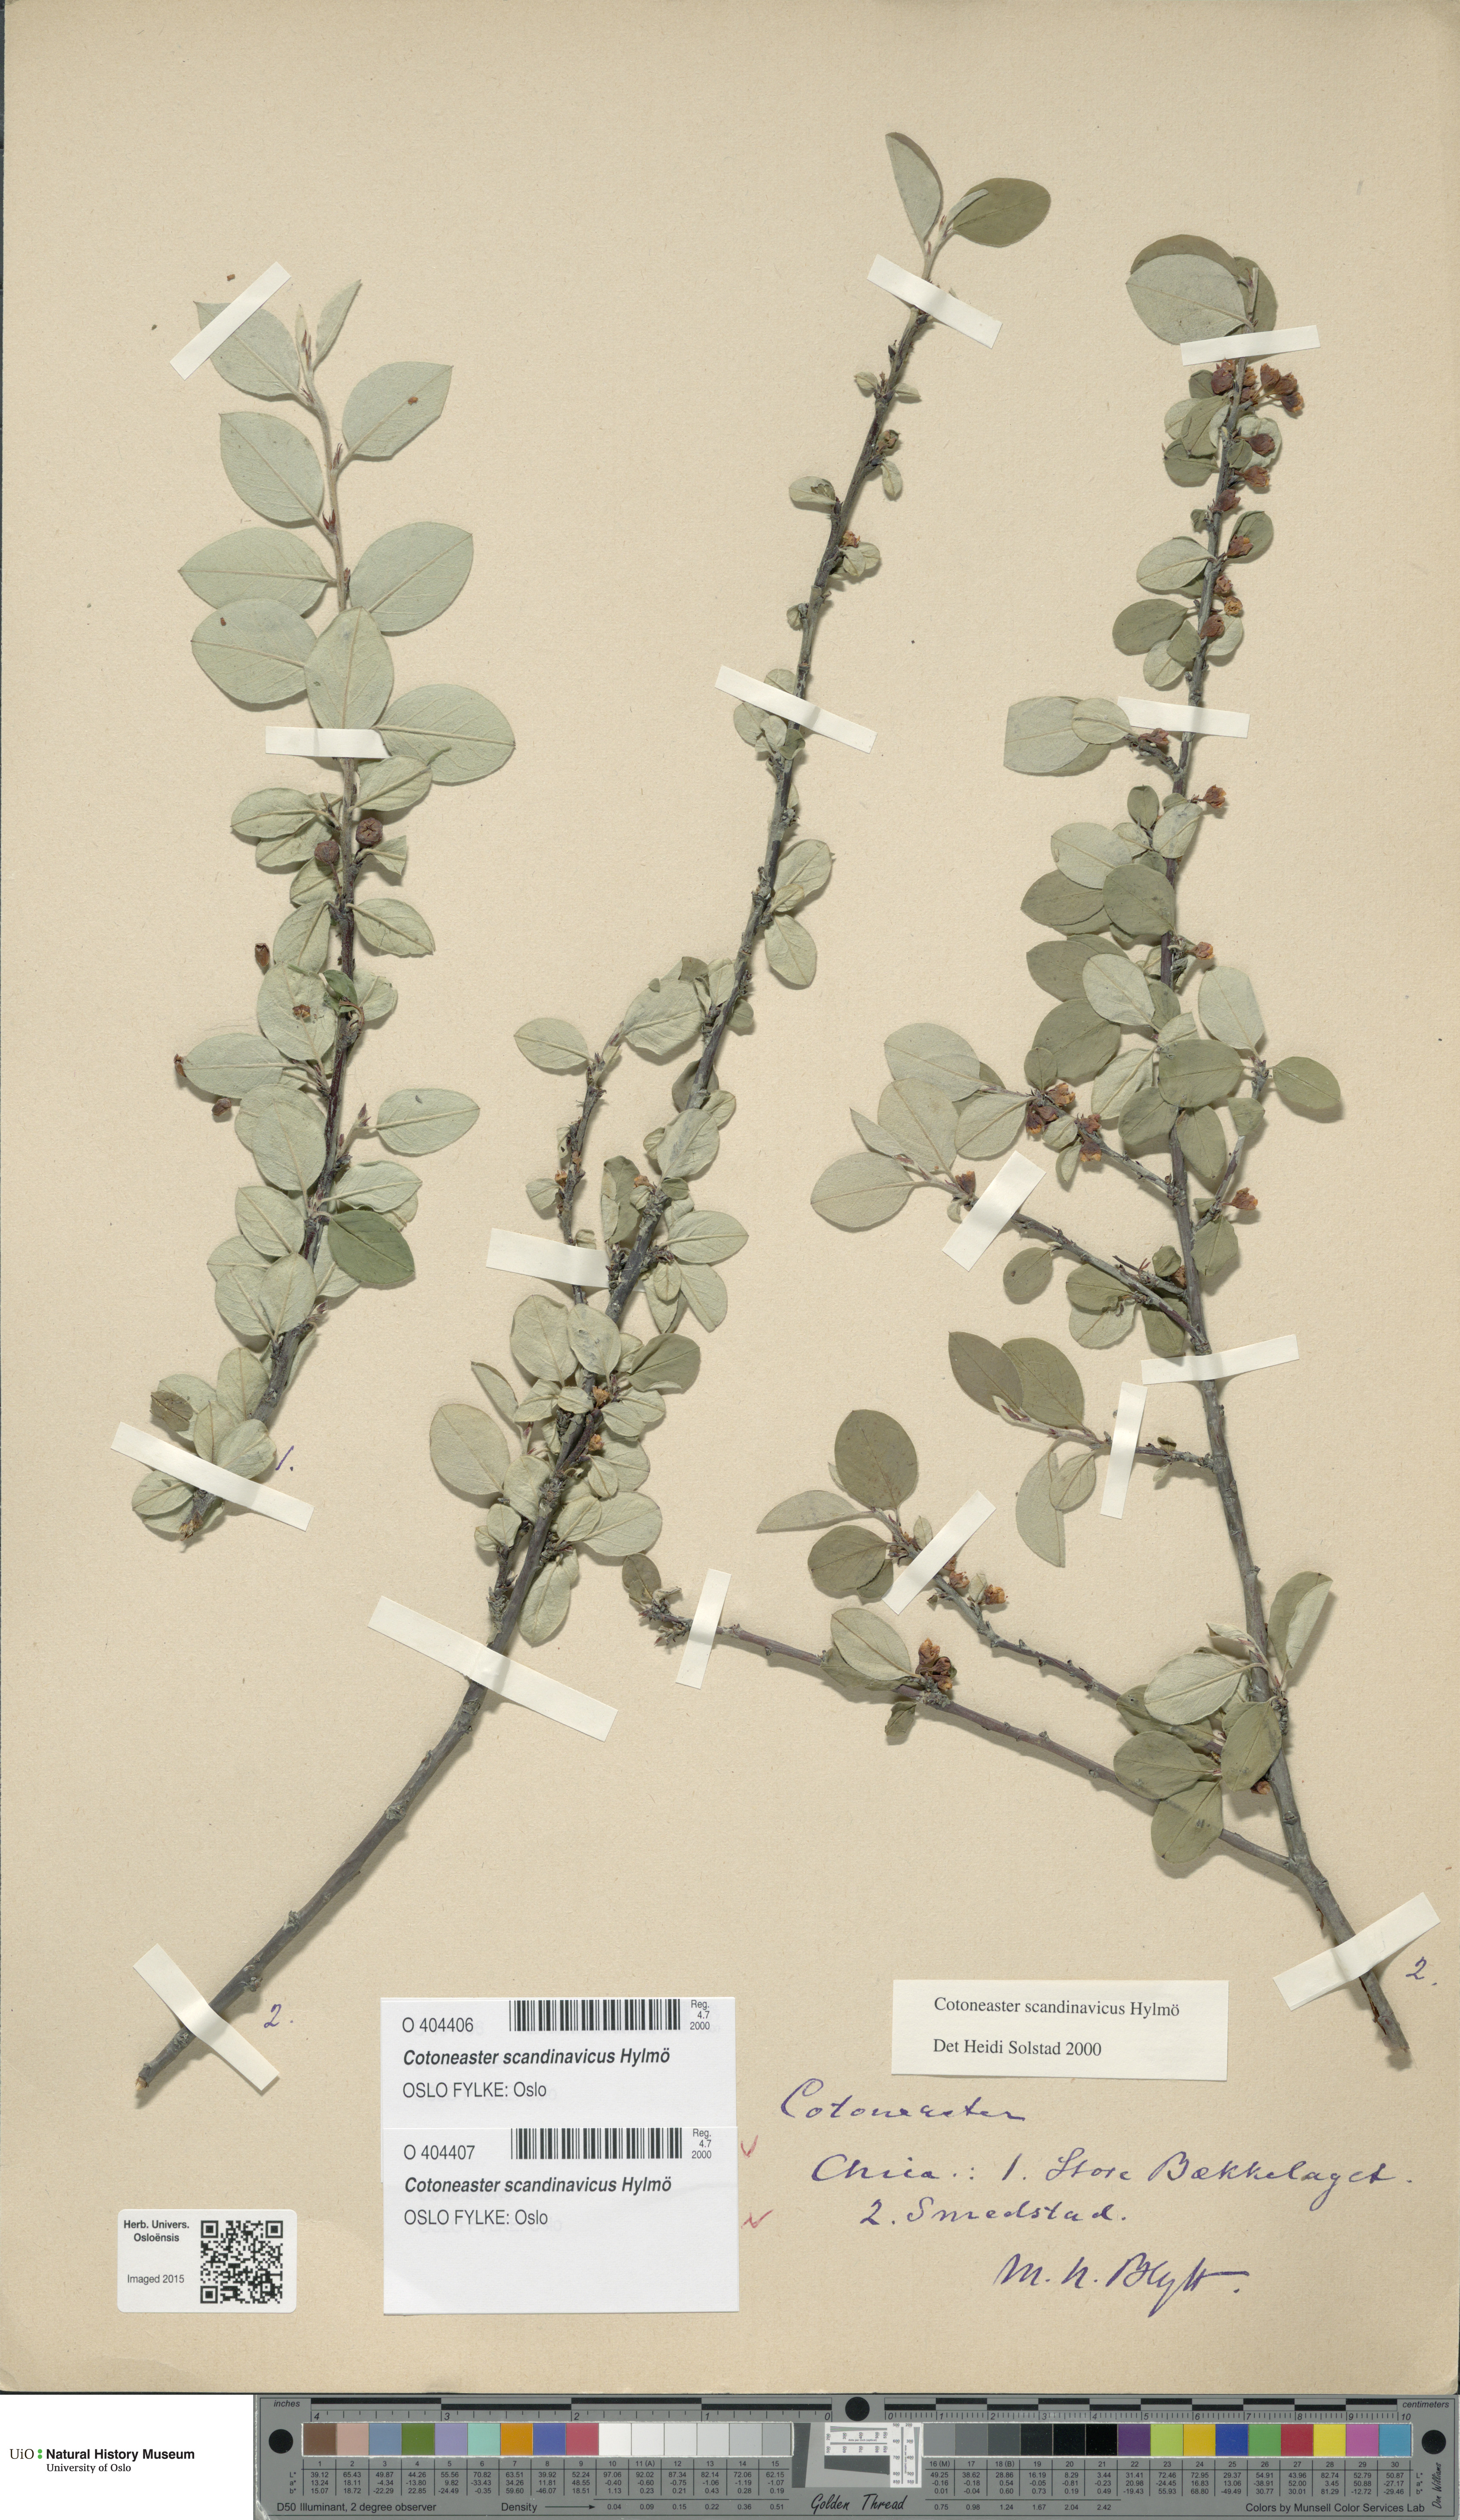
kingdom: Plantae
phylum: Tracheophyta
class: Magnoliopsida
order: Rosales
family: Rosaceae
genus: Cotoneaster
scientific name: Cotoneaster integerrimus
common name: Wild cotoneaster
